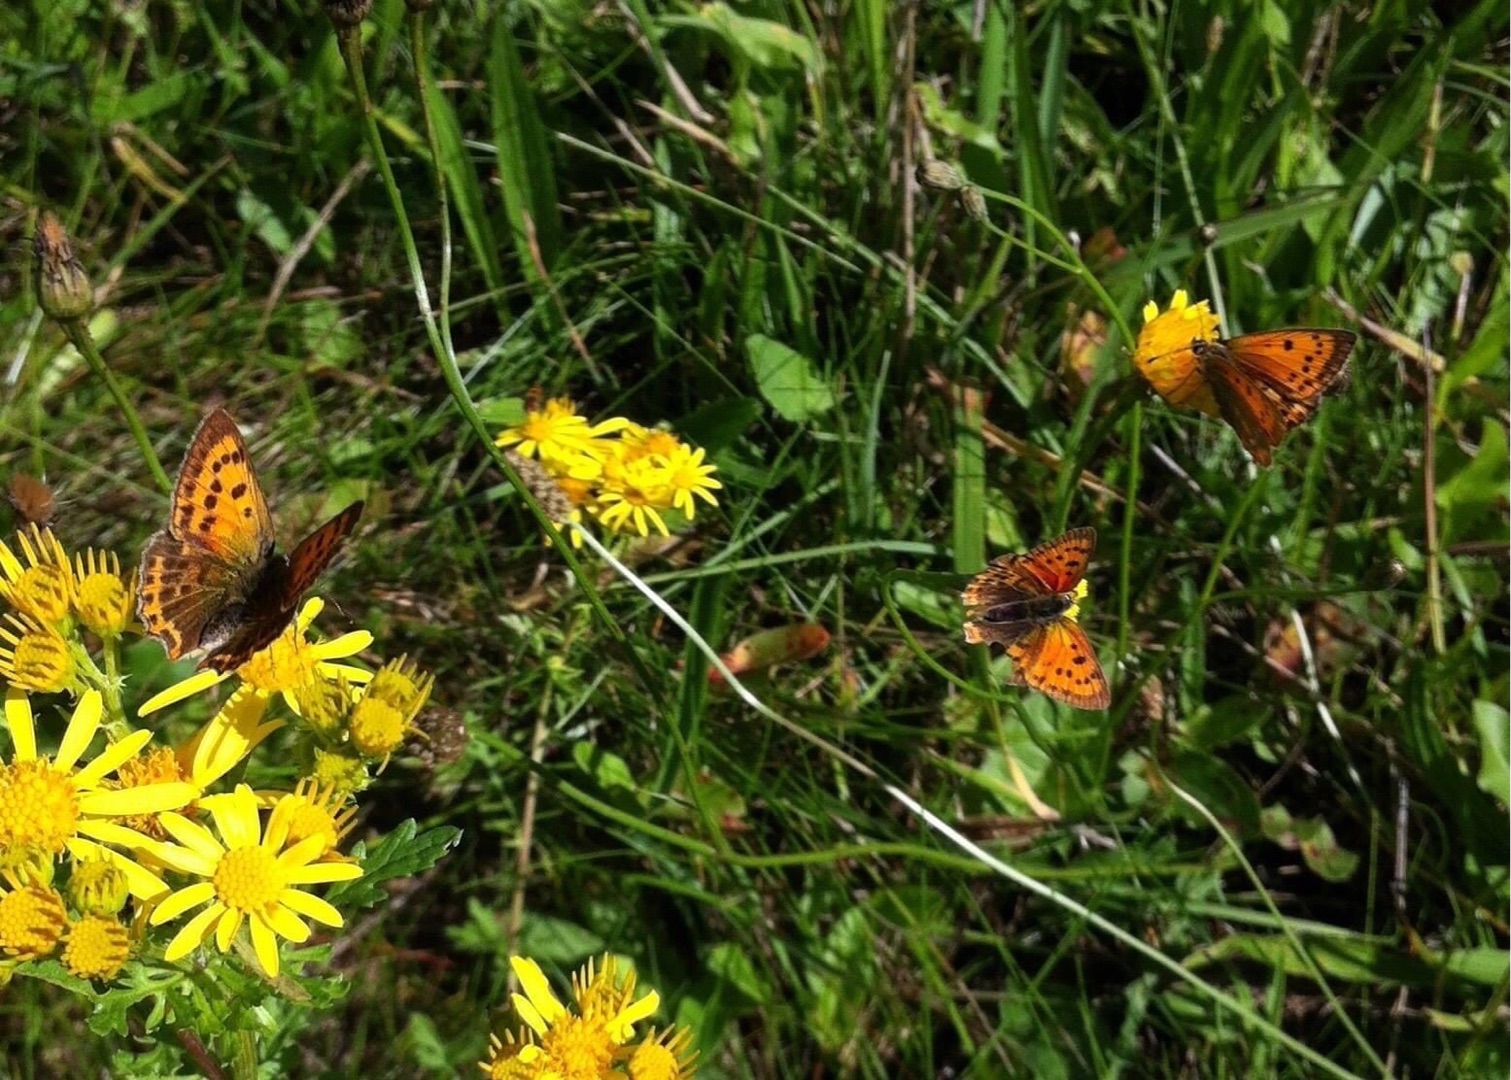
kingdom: Animalia
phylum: Arthropoda
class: Insecta
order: Lepidoptera
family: Lycaenidae
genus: Lycaena
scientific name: Lycaena virgaureae
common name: Dukatsommerfugl
